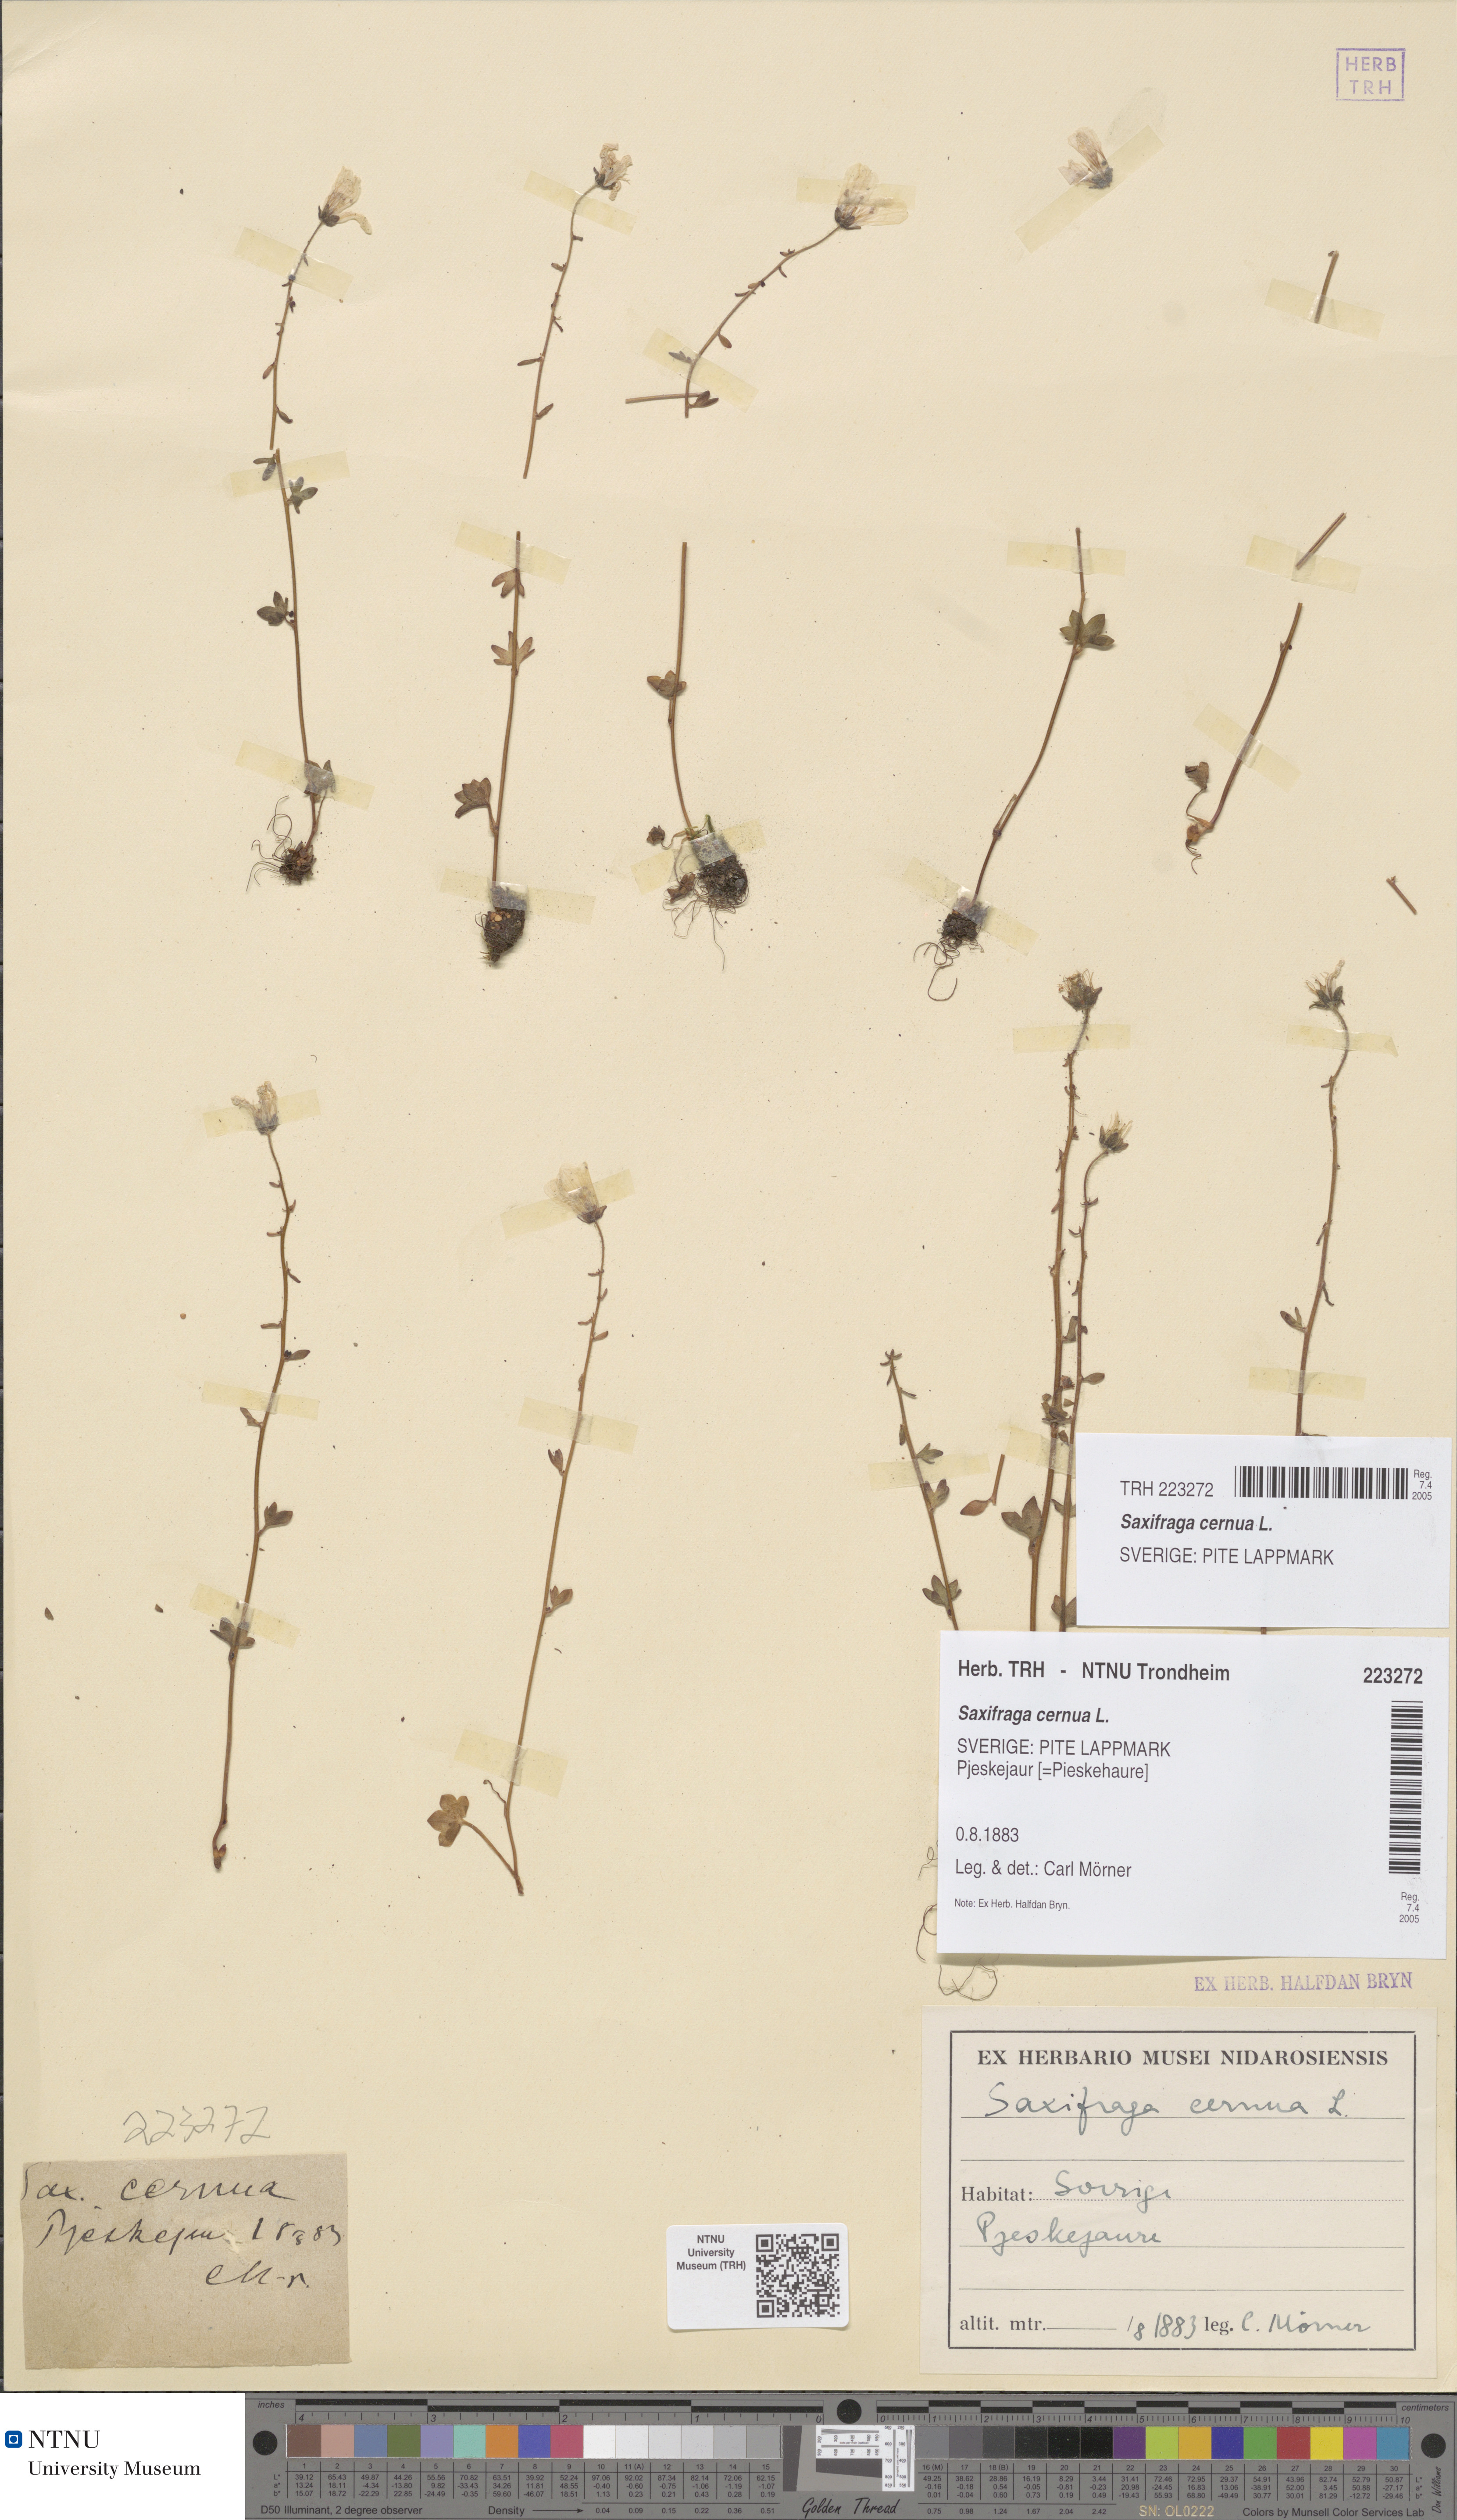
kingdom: Plantae
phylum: Tracheophyta
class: Magnoliopsida
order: Saxifragales
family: Saxifragaceae
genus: Saxifraga
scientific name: Saxifraga cernua
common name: Drooping saxifrage
